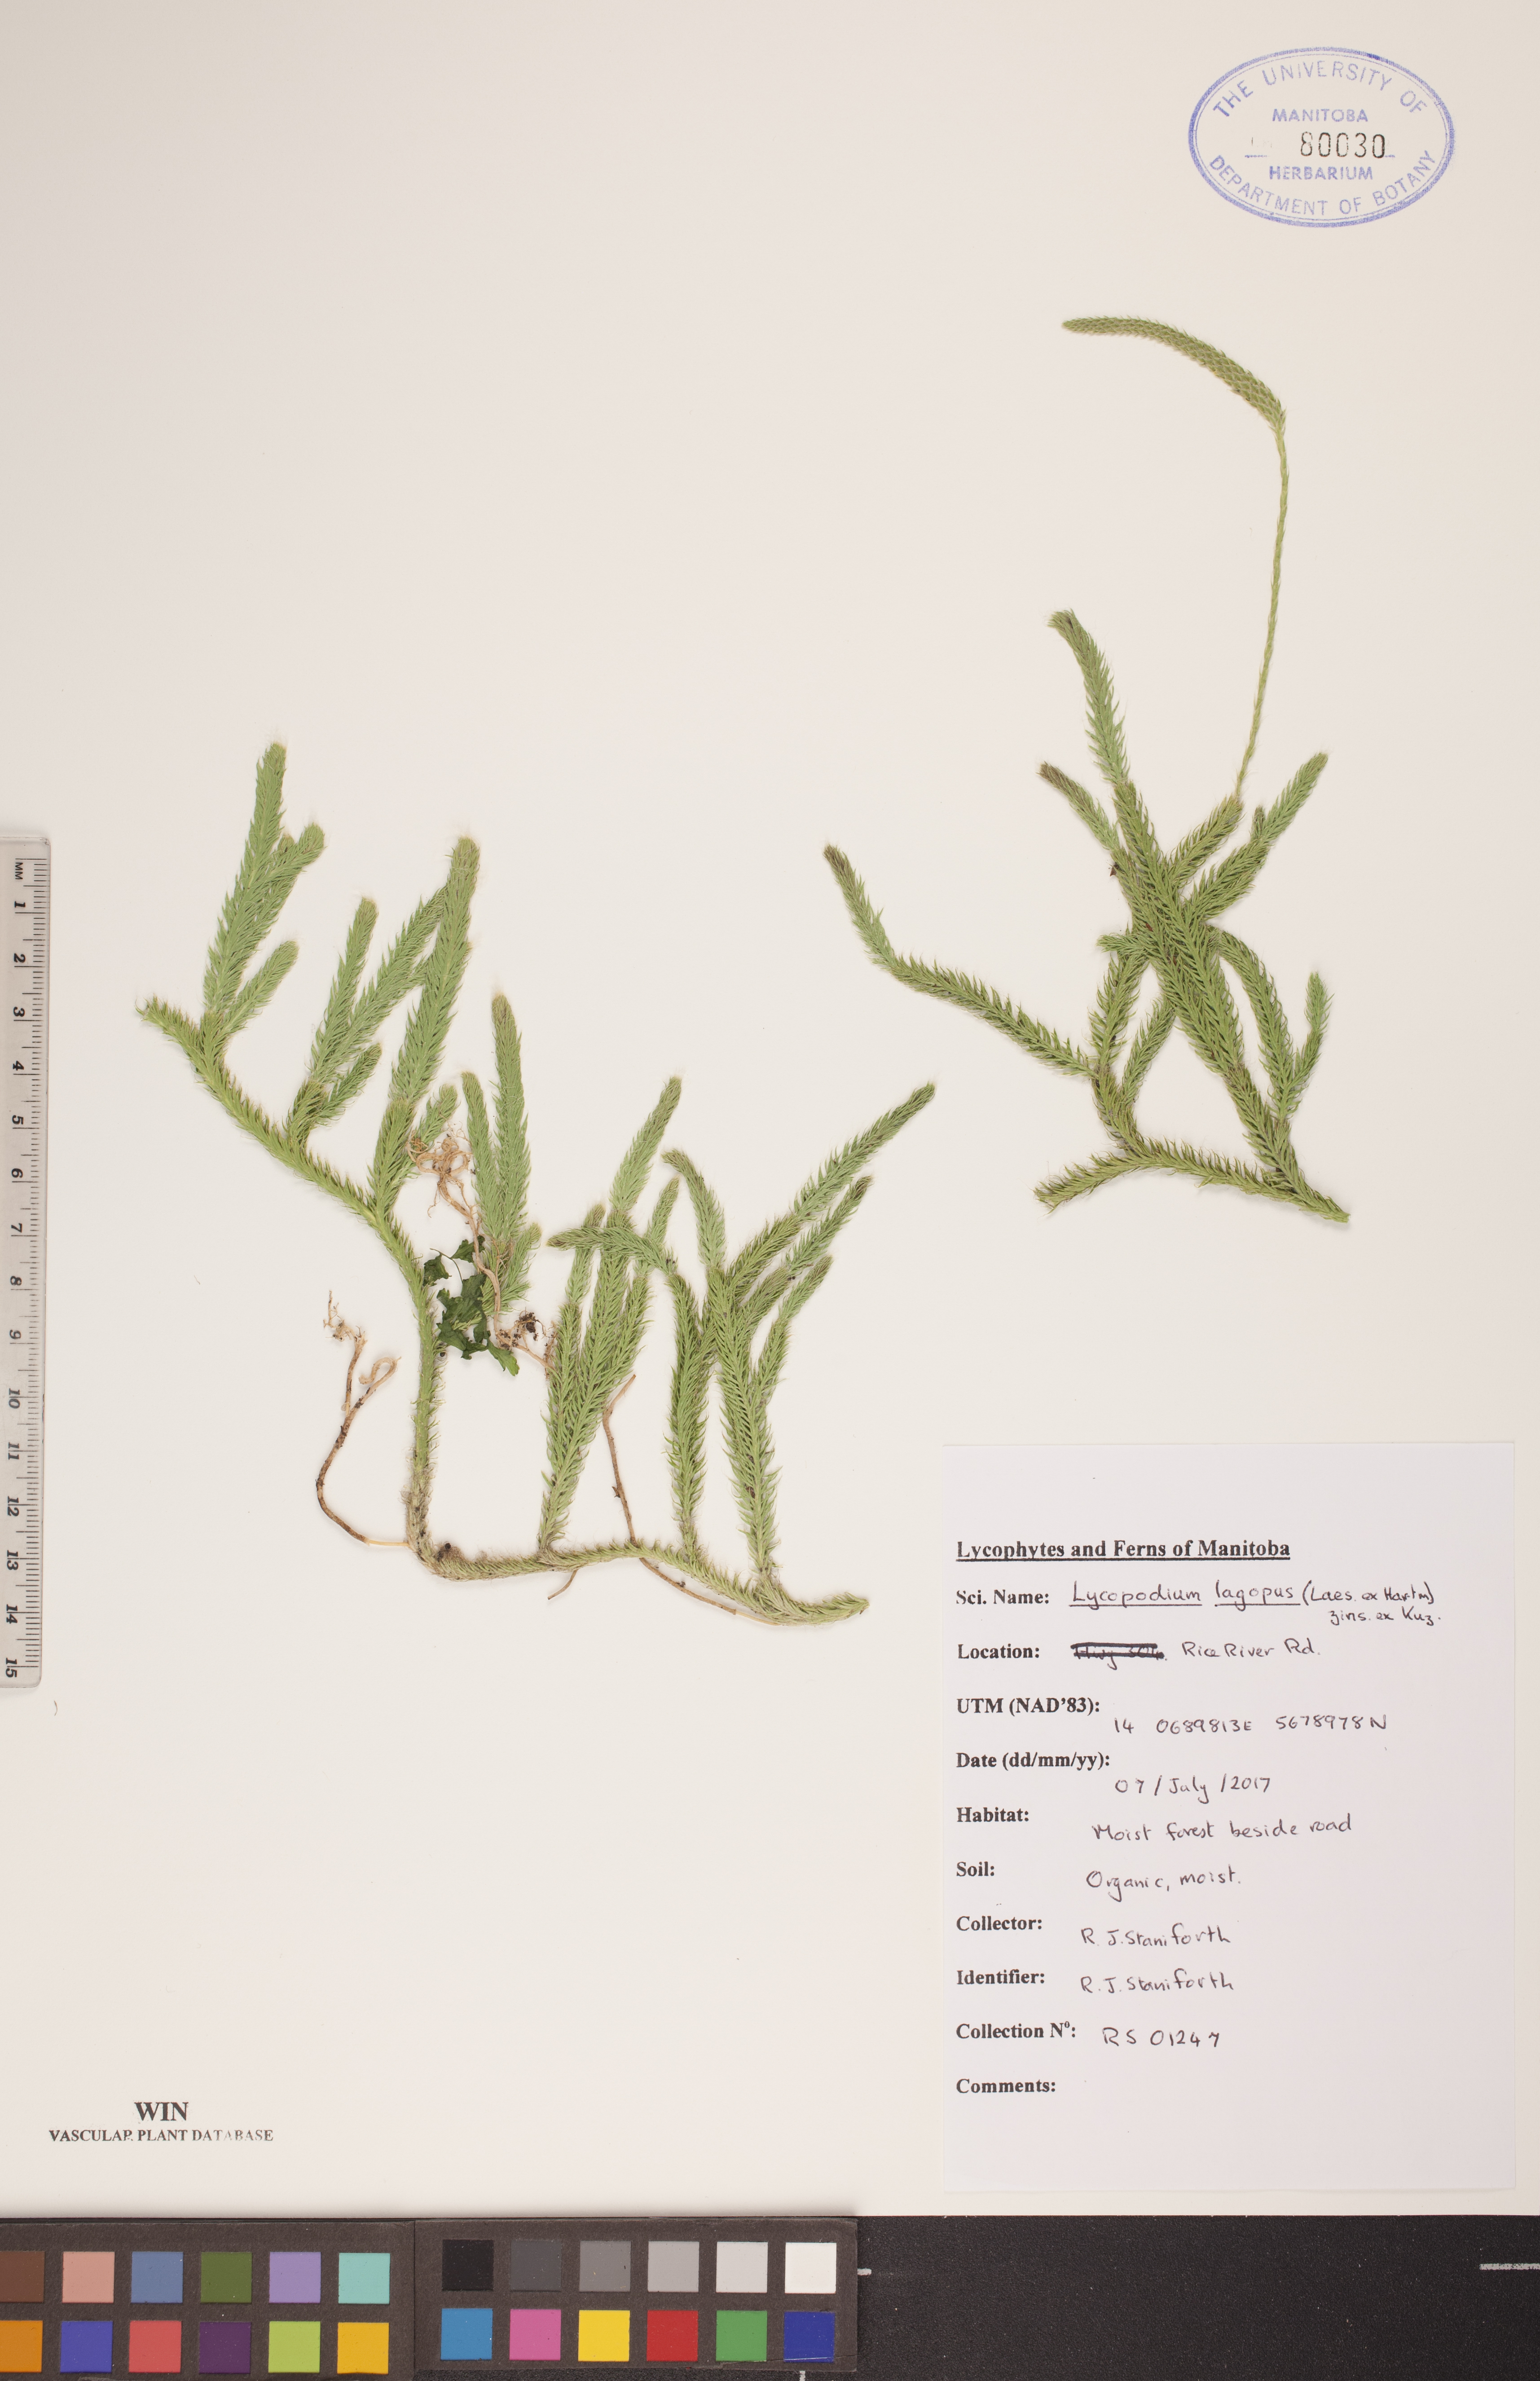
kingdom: Plantae
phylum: Tracheophyta
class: Lycopodiopsida
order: Lycopodiales
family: Lycopodiaceae
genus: Lycopodium
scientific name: Lycopodium lagopus
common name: One-cone clubmoss
